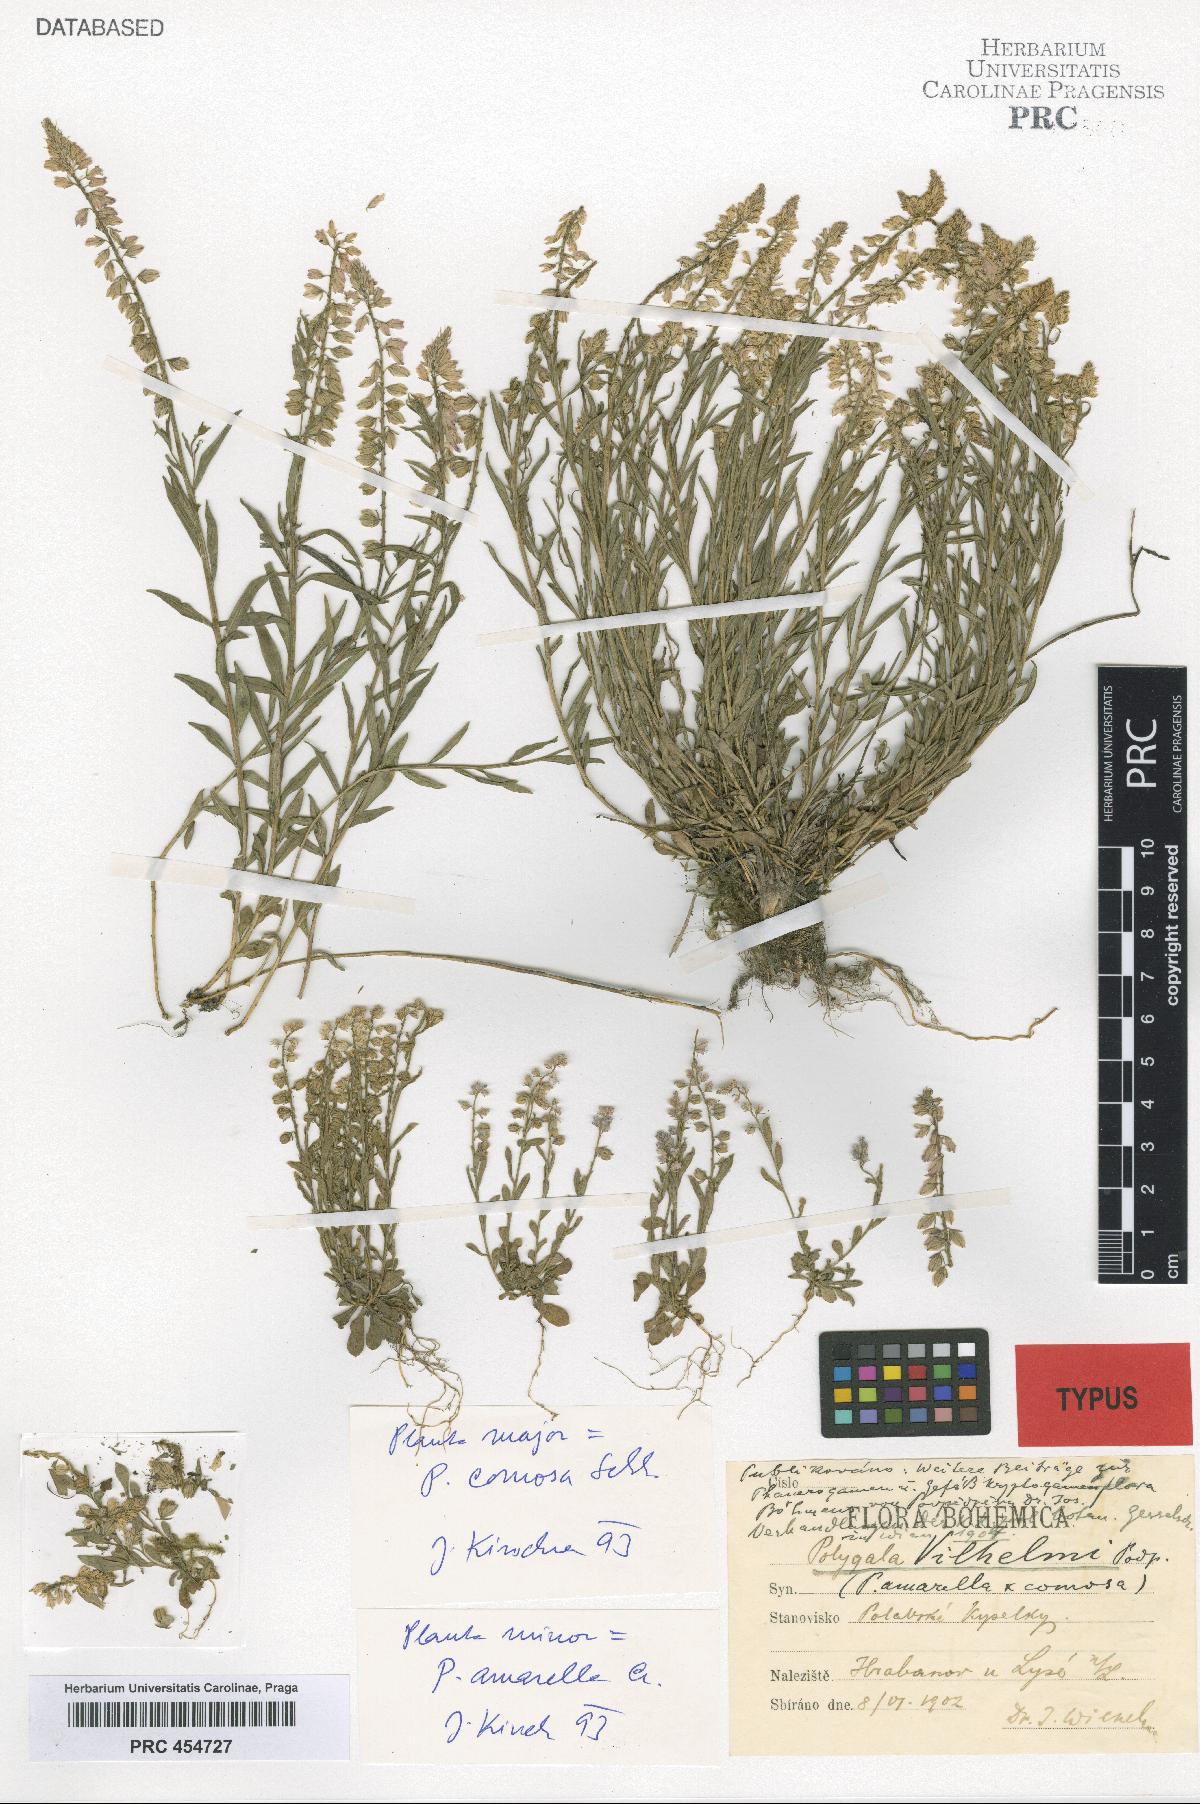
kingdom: Plantae
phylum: Tracheophyta
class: Magnoliopsida
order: Fabales
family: Polygalaceae
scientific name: Polygalaceae
